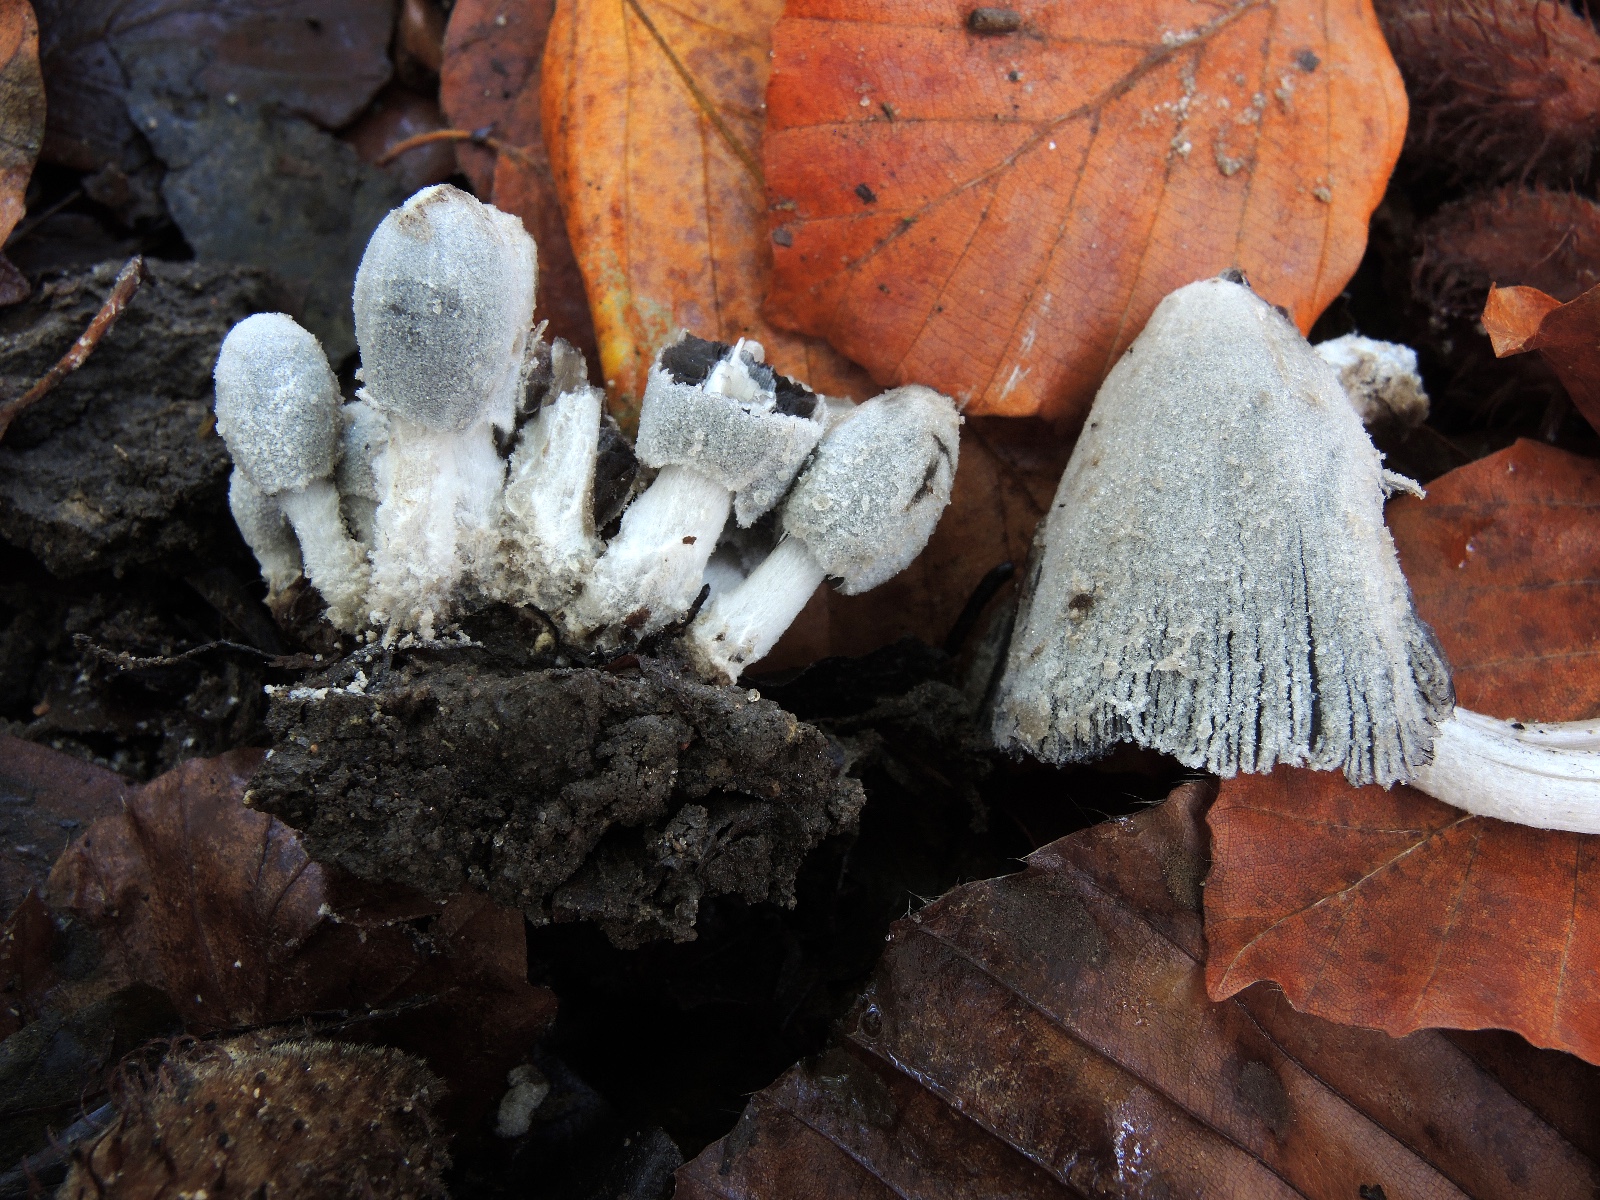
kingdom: Fungi
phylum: Basidiomycota
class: Agaricomycetes
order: Agaricales
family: Psathyrellaceae
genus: Coprinopsis
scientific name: Coprinopsis radicans
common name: rod-blækhat
